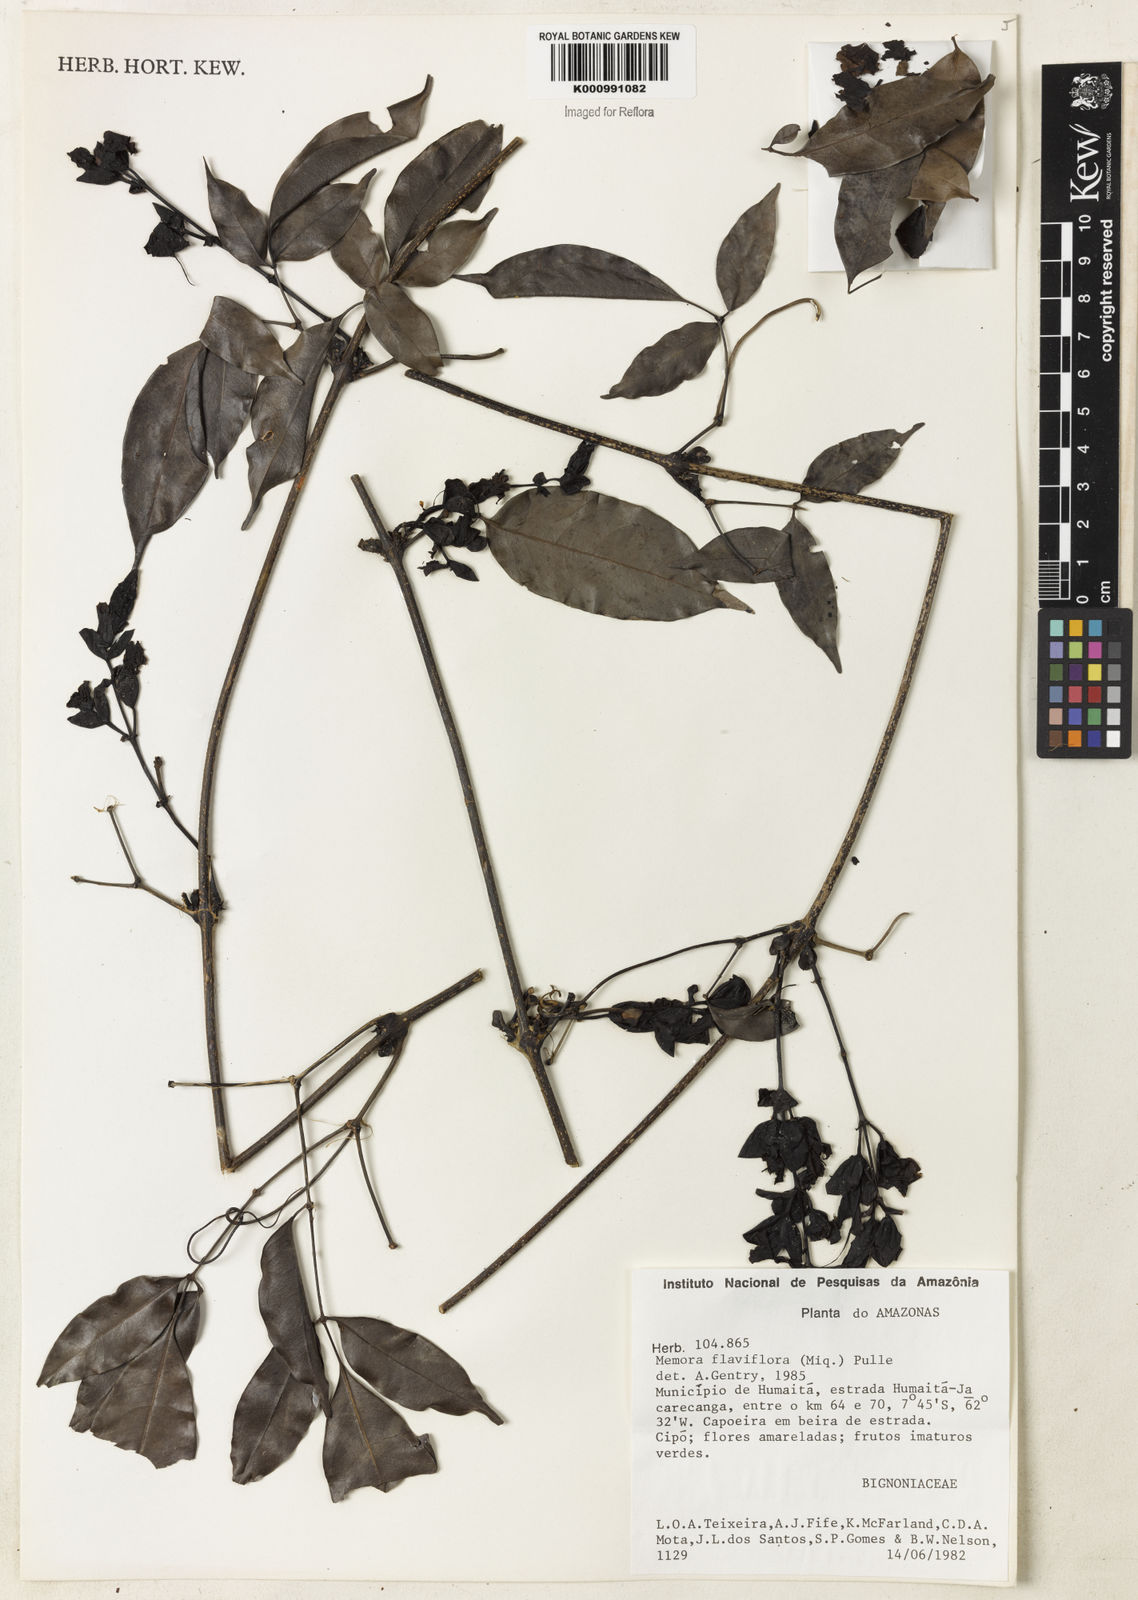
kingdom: Plantae
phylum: Tracheophyta
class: Magnoliopsida
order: Lamiales
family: Bignoniaceae
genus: Adenocalymma
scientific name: Adenocalymma flaviflorum
